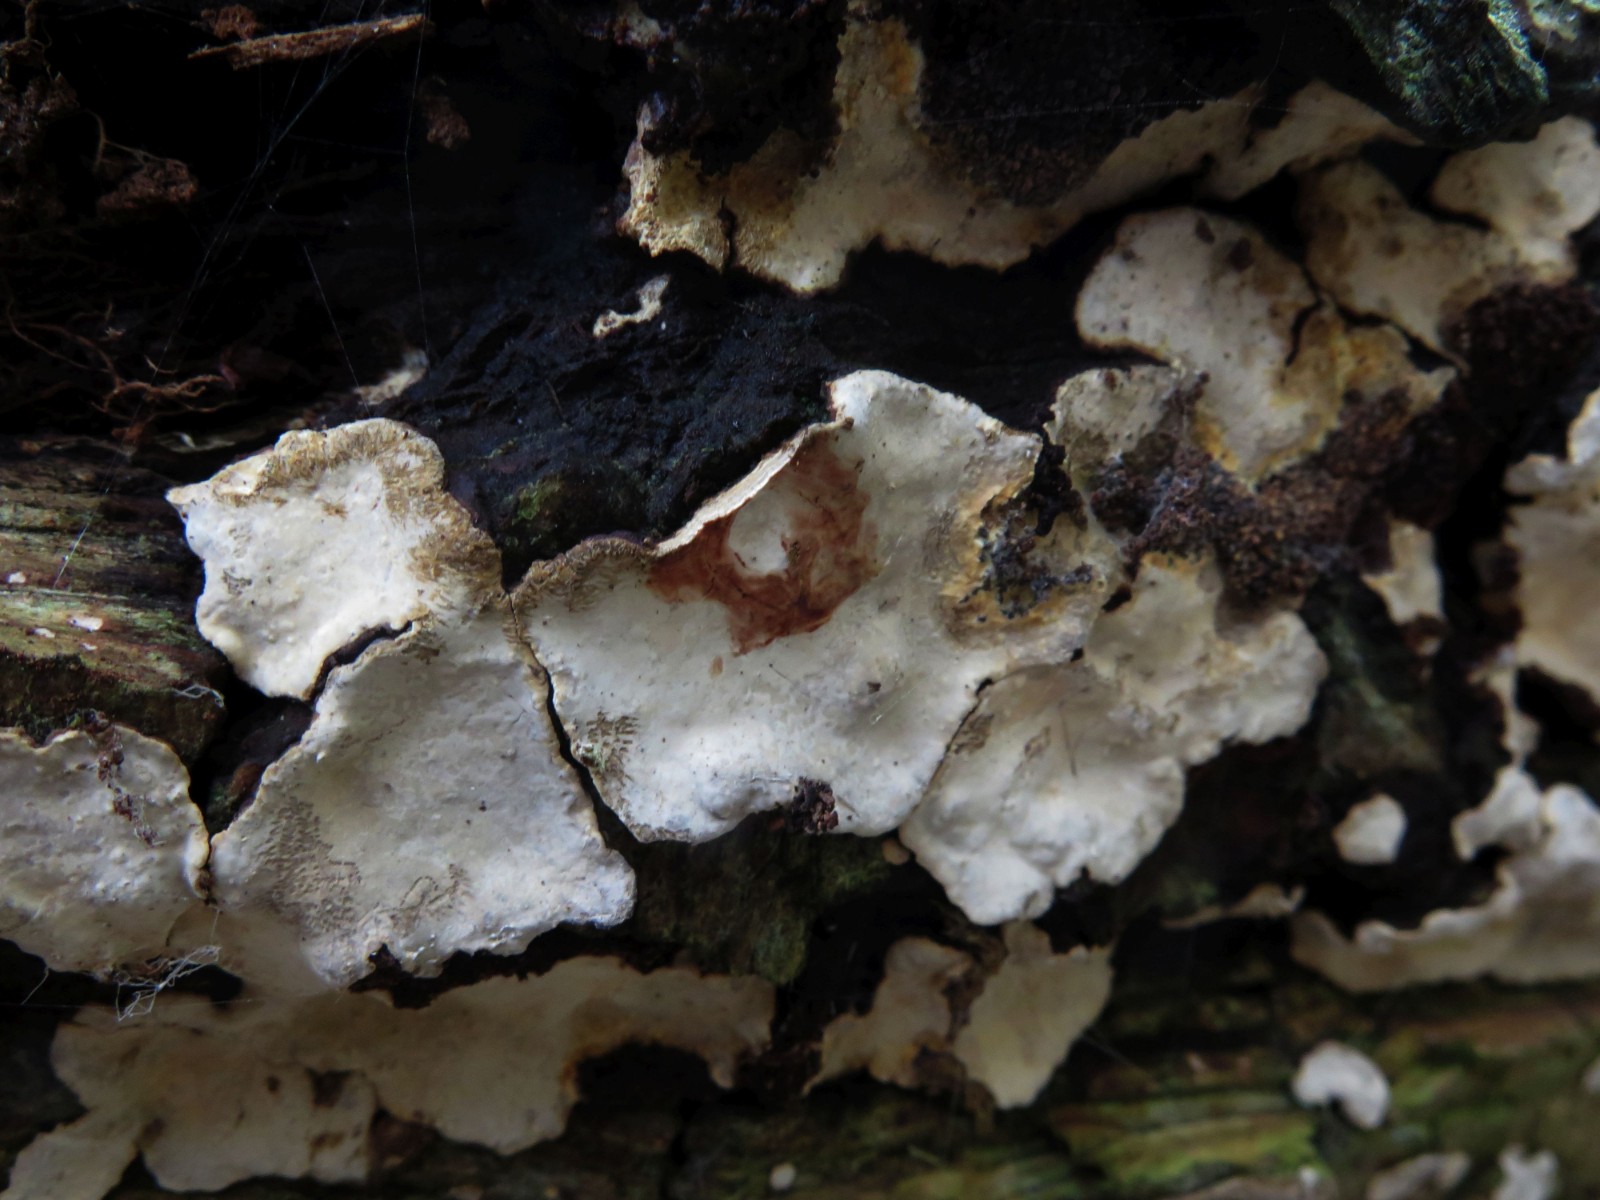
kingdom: Fungi
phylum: Basidiomycota
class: Agaricomycetes
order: Russulales
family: Stereaceae
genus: Stereum
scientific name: Stereum rugosum
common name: rynket lædersvamp
